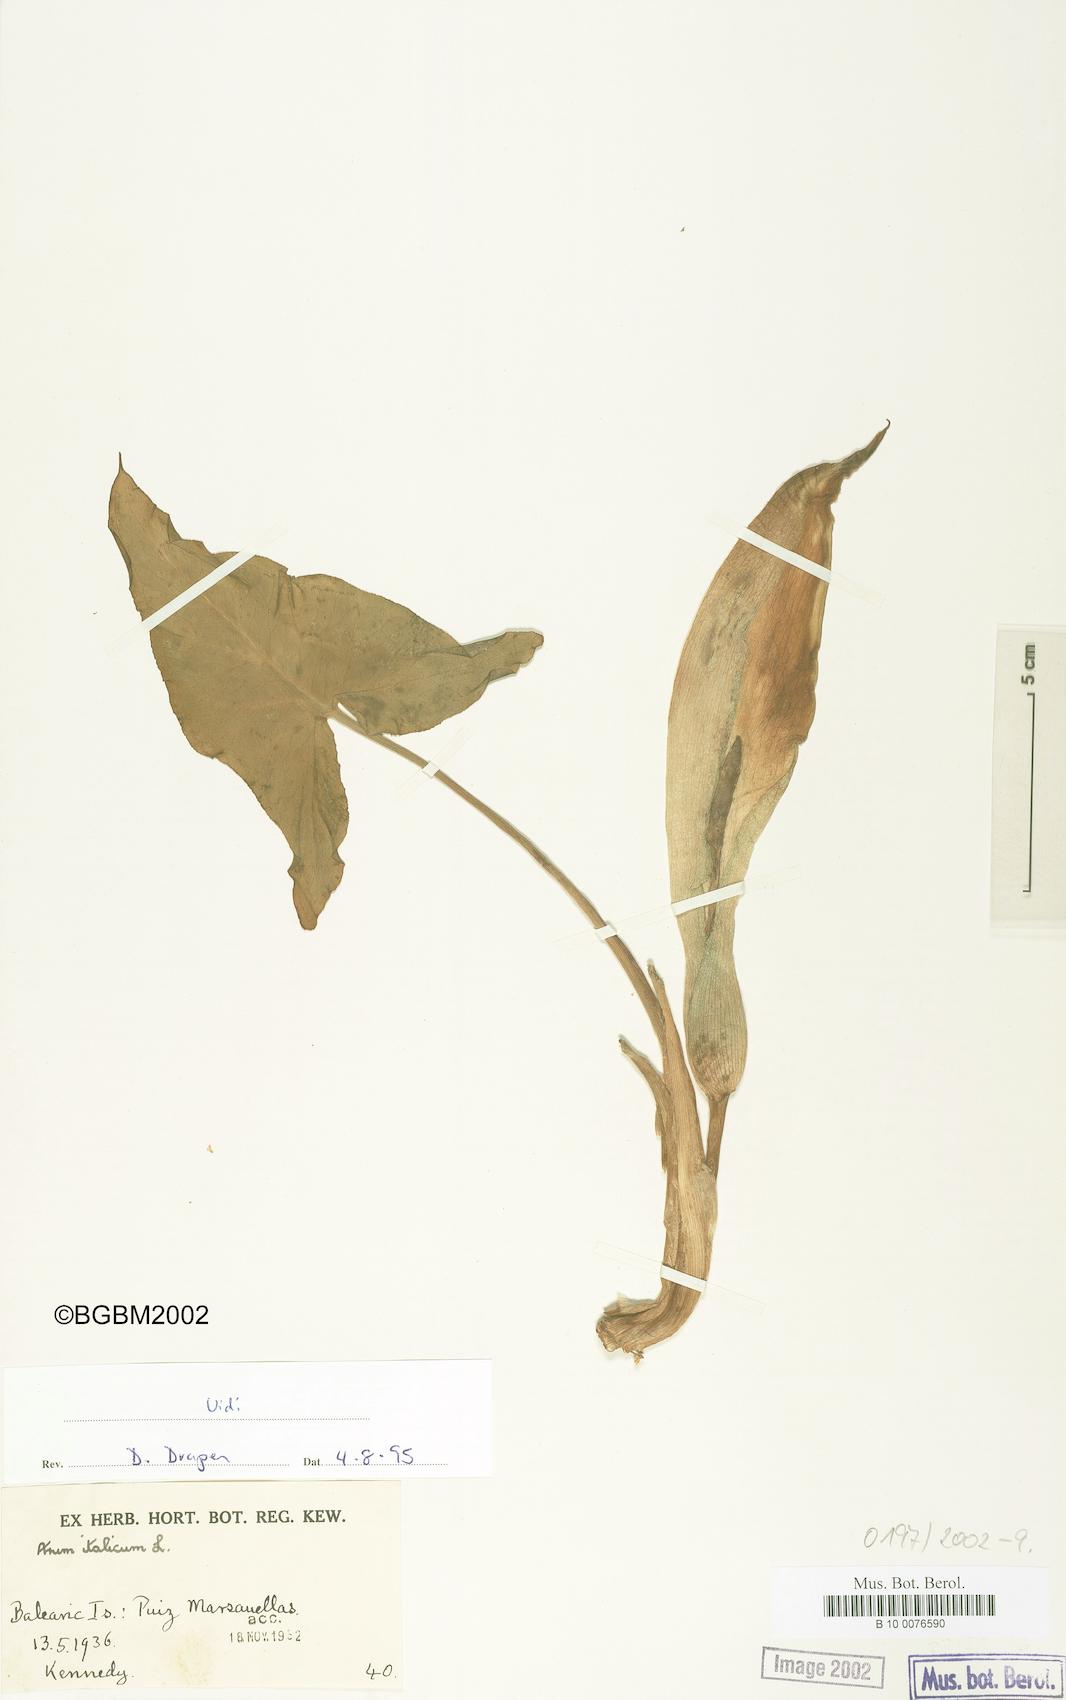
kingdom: Plantae
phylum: Tracheophyta
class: Liliopsida
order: Alismatales
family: Araceae
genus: Arum
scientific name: Arum italicum
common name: Italian lords-and-ladies
